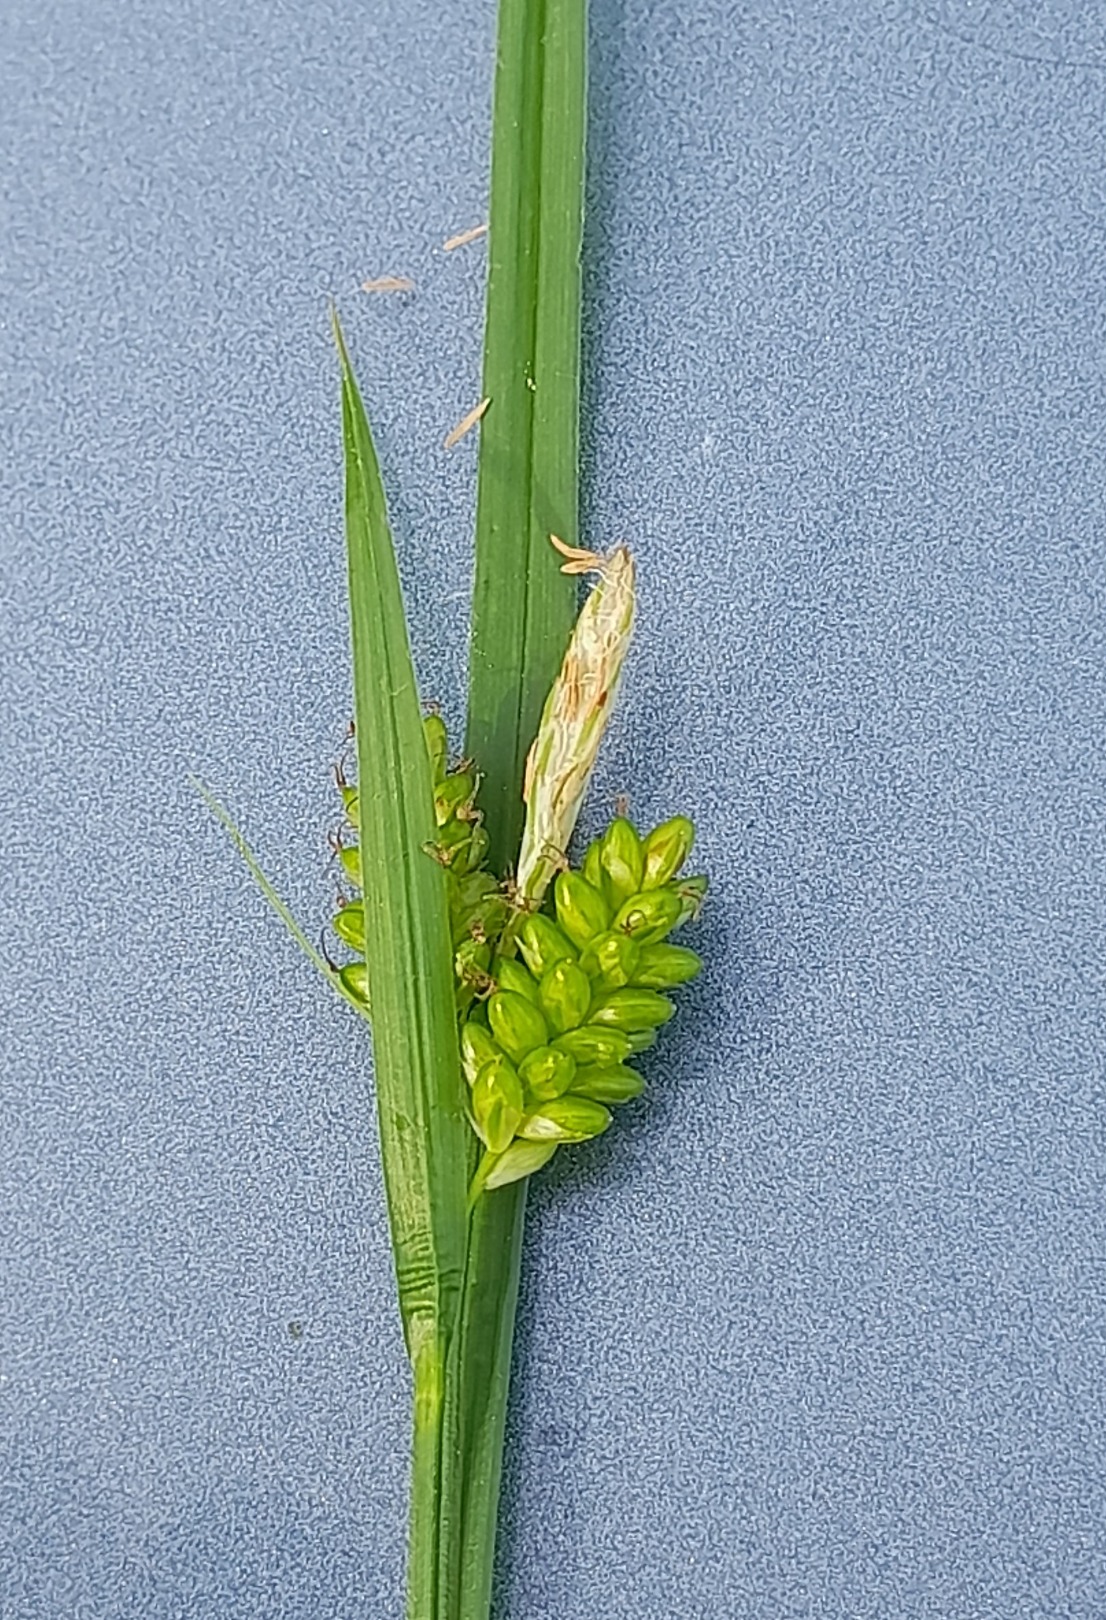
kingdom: Plantae
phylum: Tracheophyta
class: Liliopsida
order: Poales
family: Cyperaceae
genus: Carex
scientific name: Carex pallescens
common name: Bleg star
